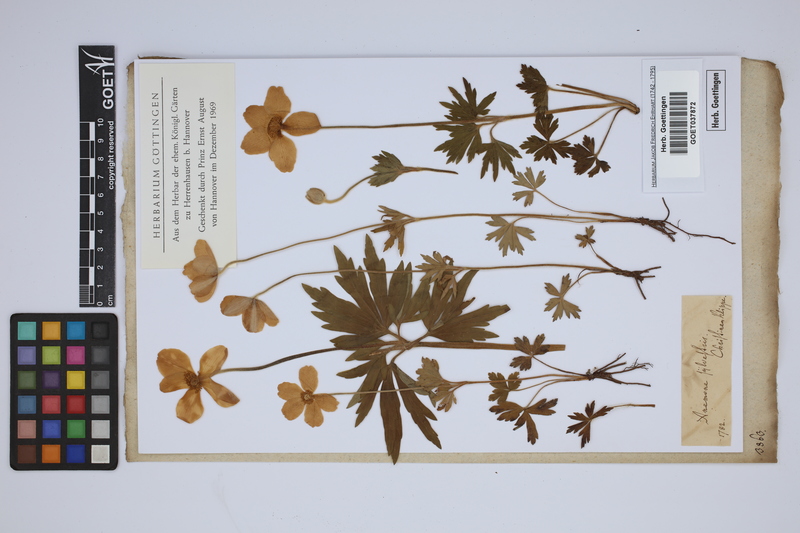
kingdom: Plantae
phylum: Tracheophyta
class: Magnoliopsida
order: Ranunculales
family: Ranunculaceae
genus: Anemone
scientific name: Anemone sylvestris
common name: Snowdrop anemone
